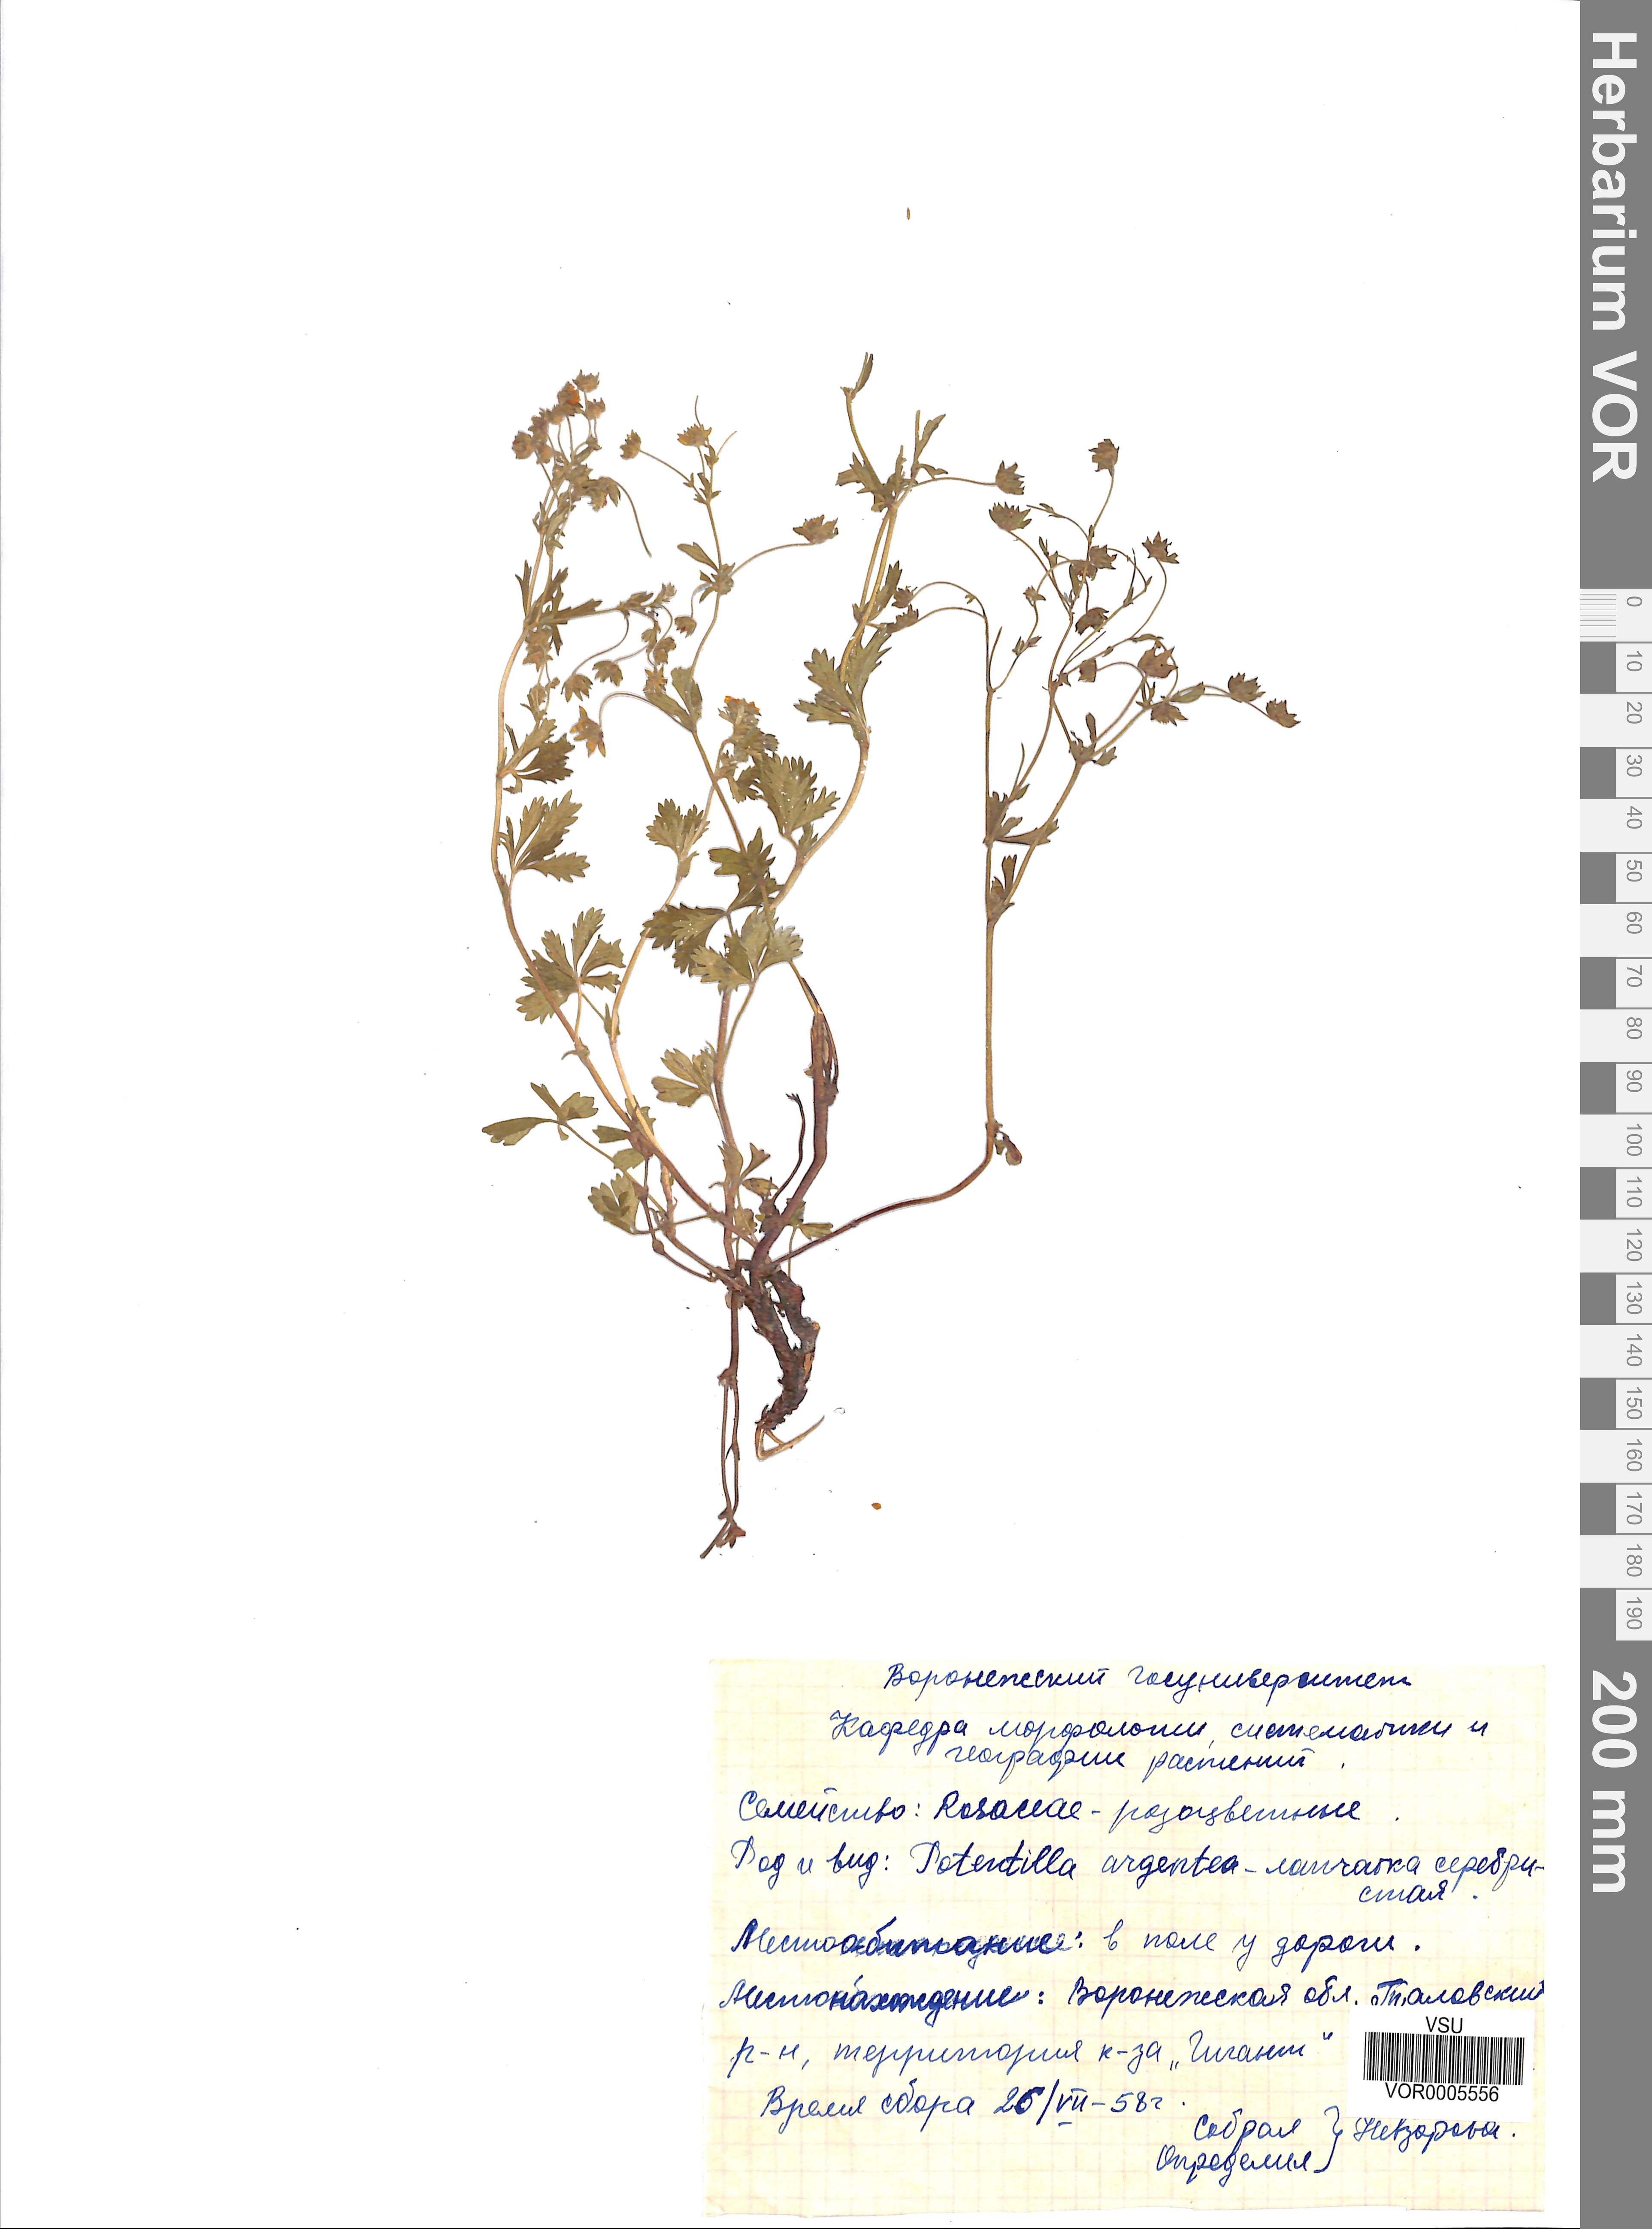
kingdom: Plantae
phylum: Tracheophyta
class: Magnoliopsida
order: Rosales
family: Rosaceae
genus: Potentilla
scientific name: Potentilla argentea
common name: Hoary cinquefoil
